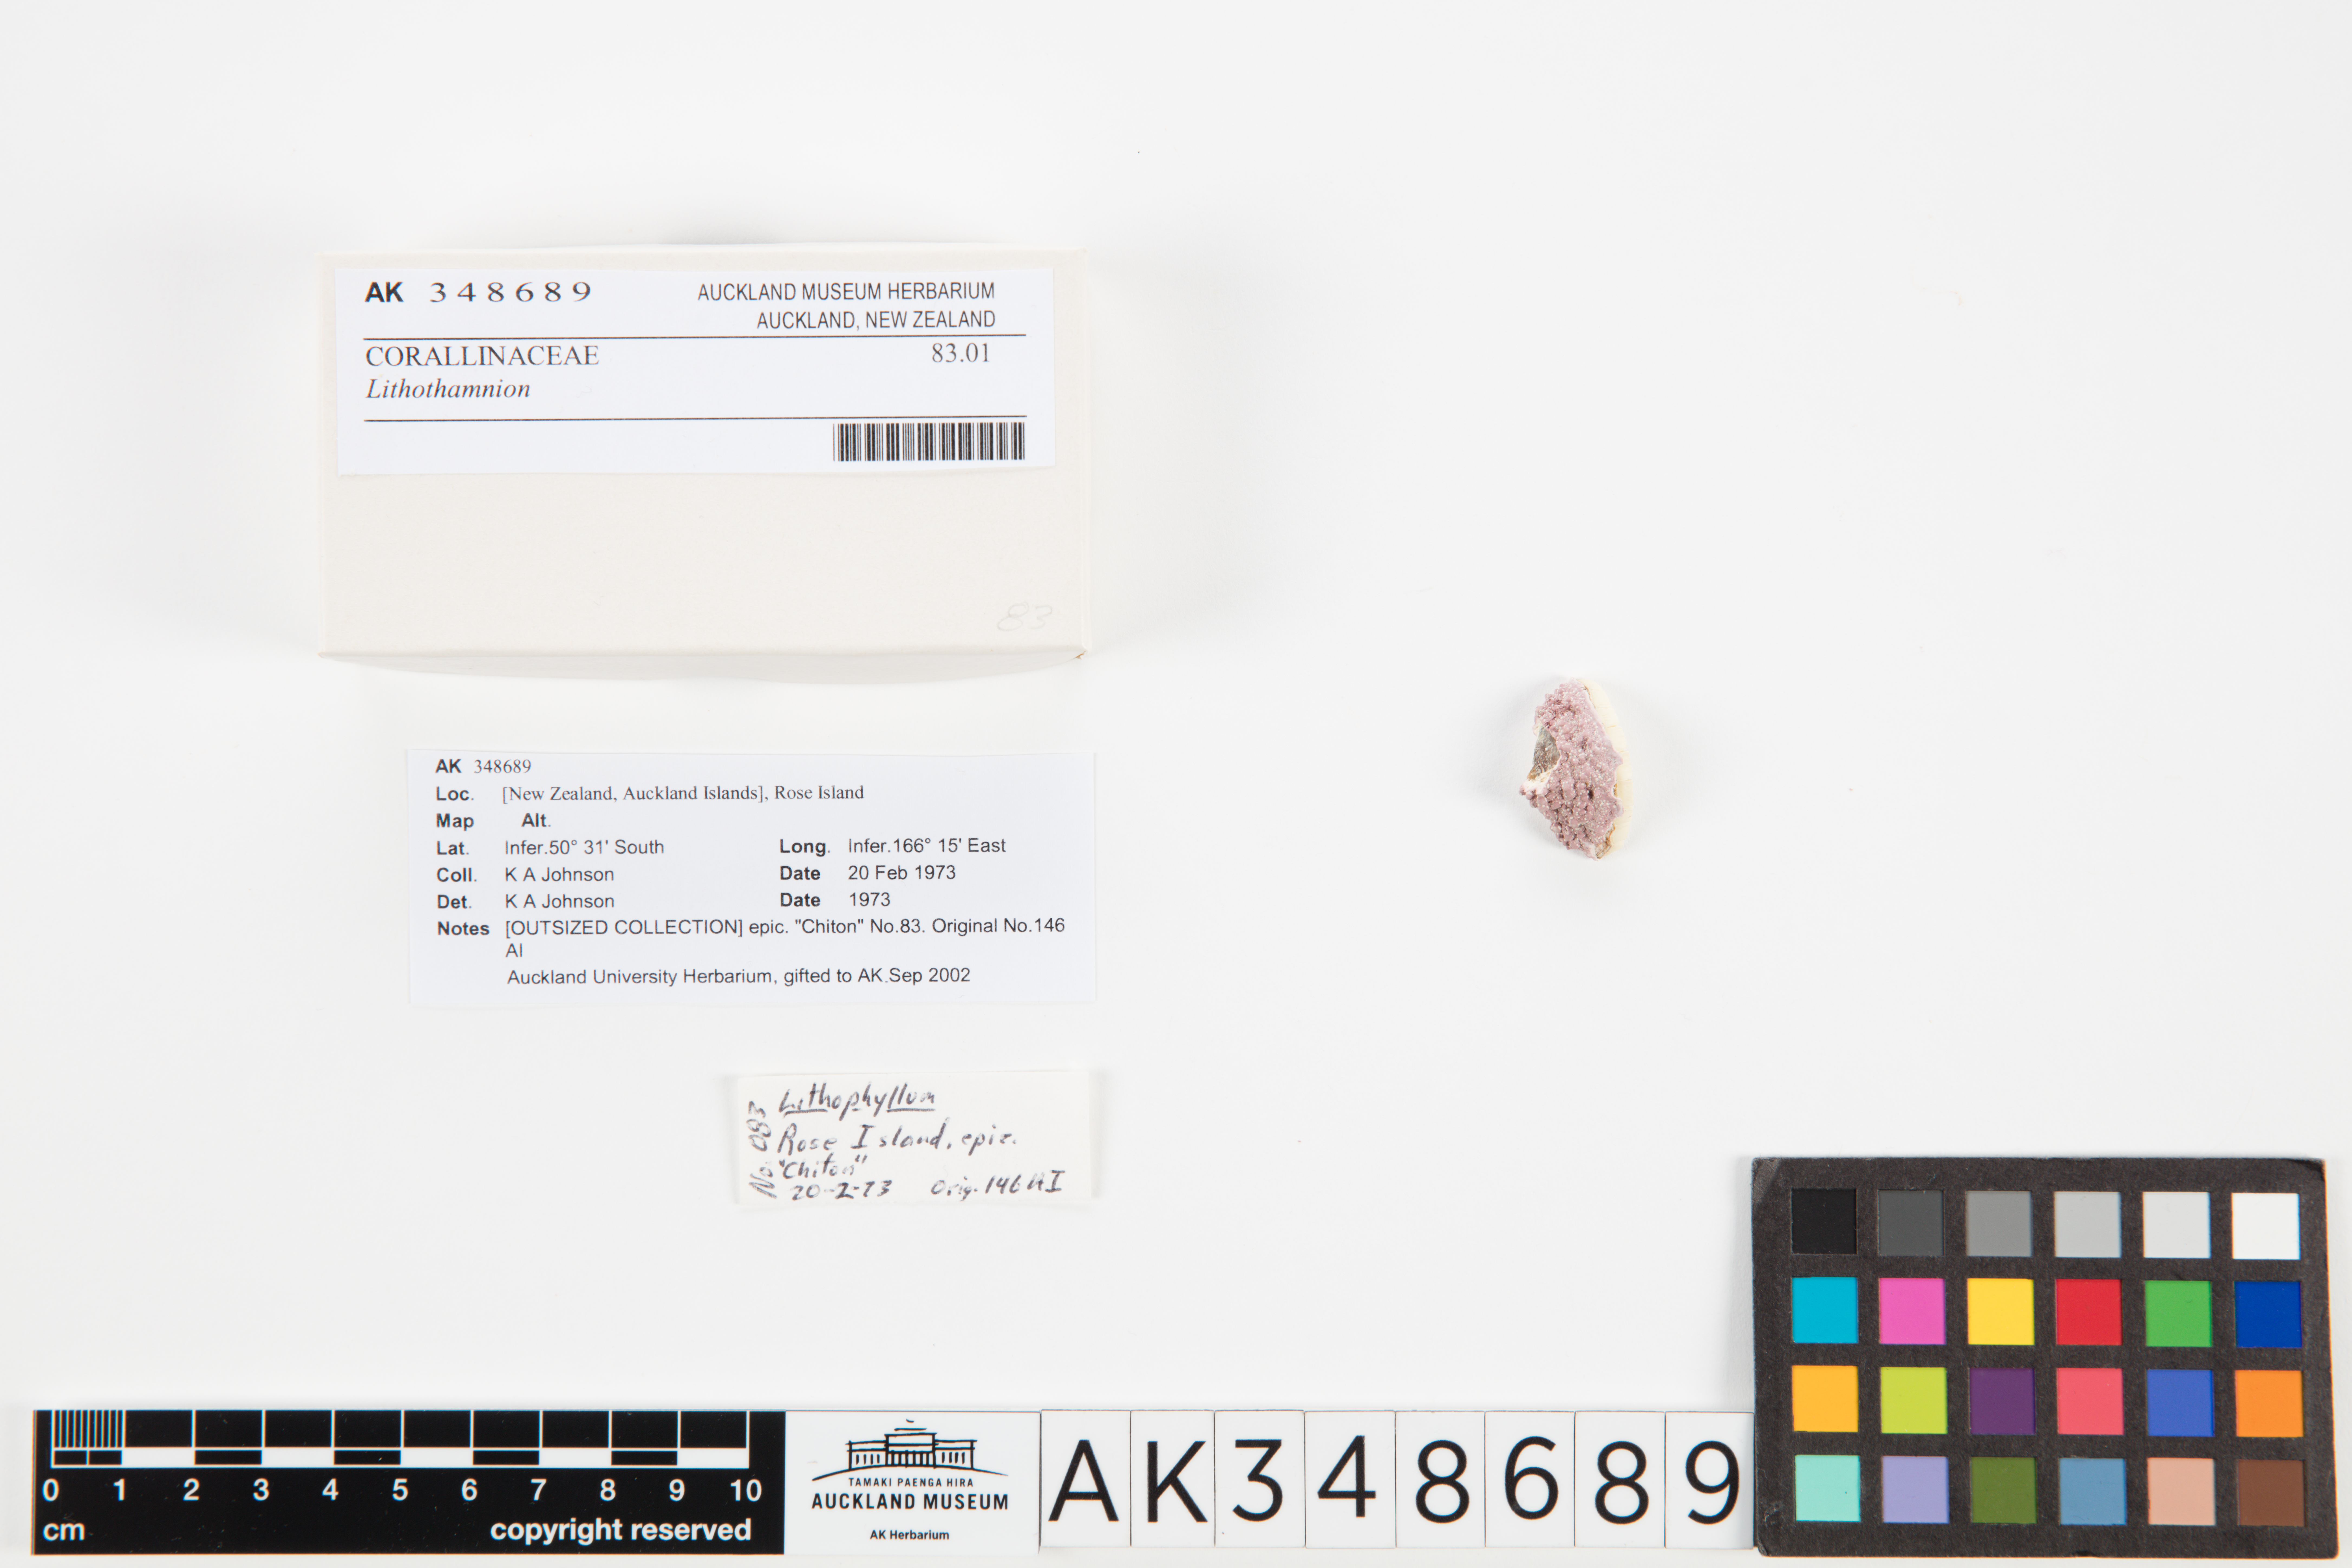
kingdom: Plantae
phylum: Rhodophyta
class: Florideophyceae
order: Corallinales
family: Hapalidiaceae
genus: Lithothamnion
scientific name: Lithothamnion
